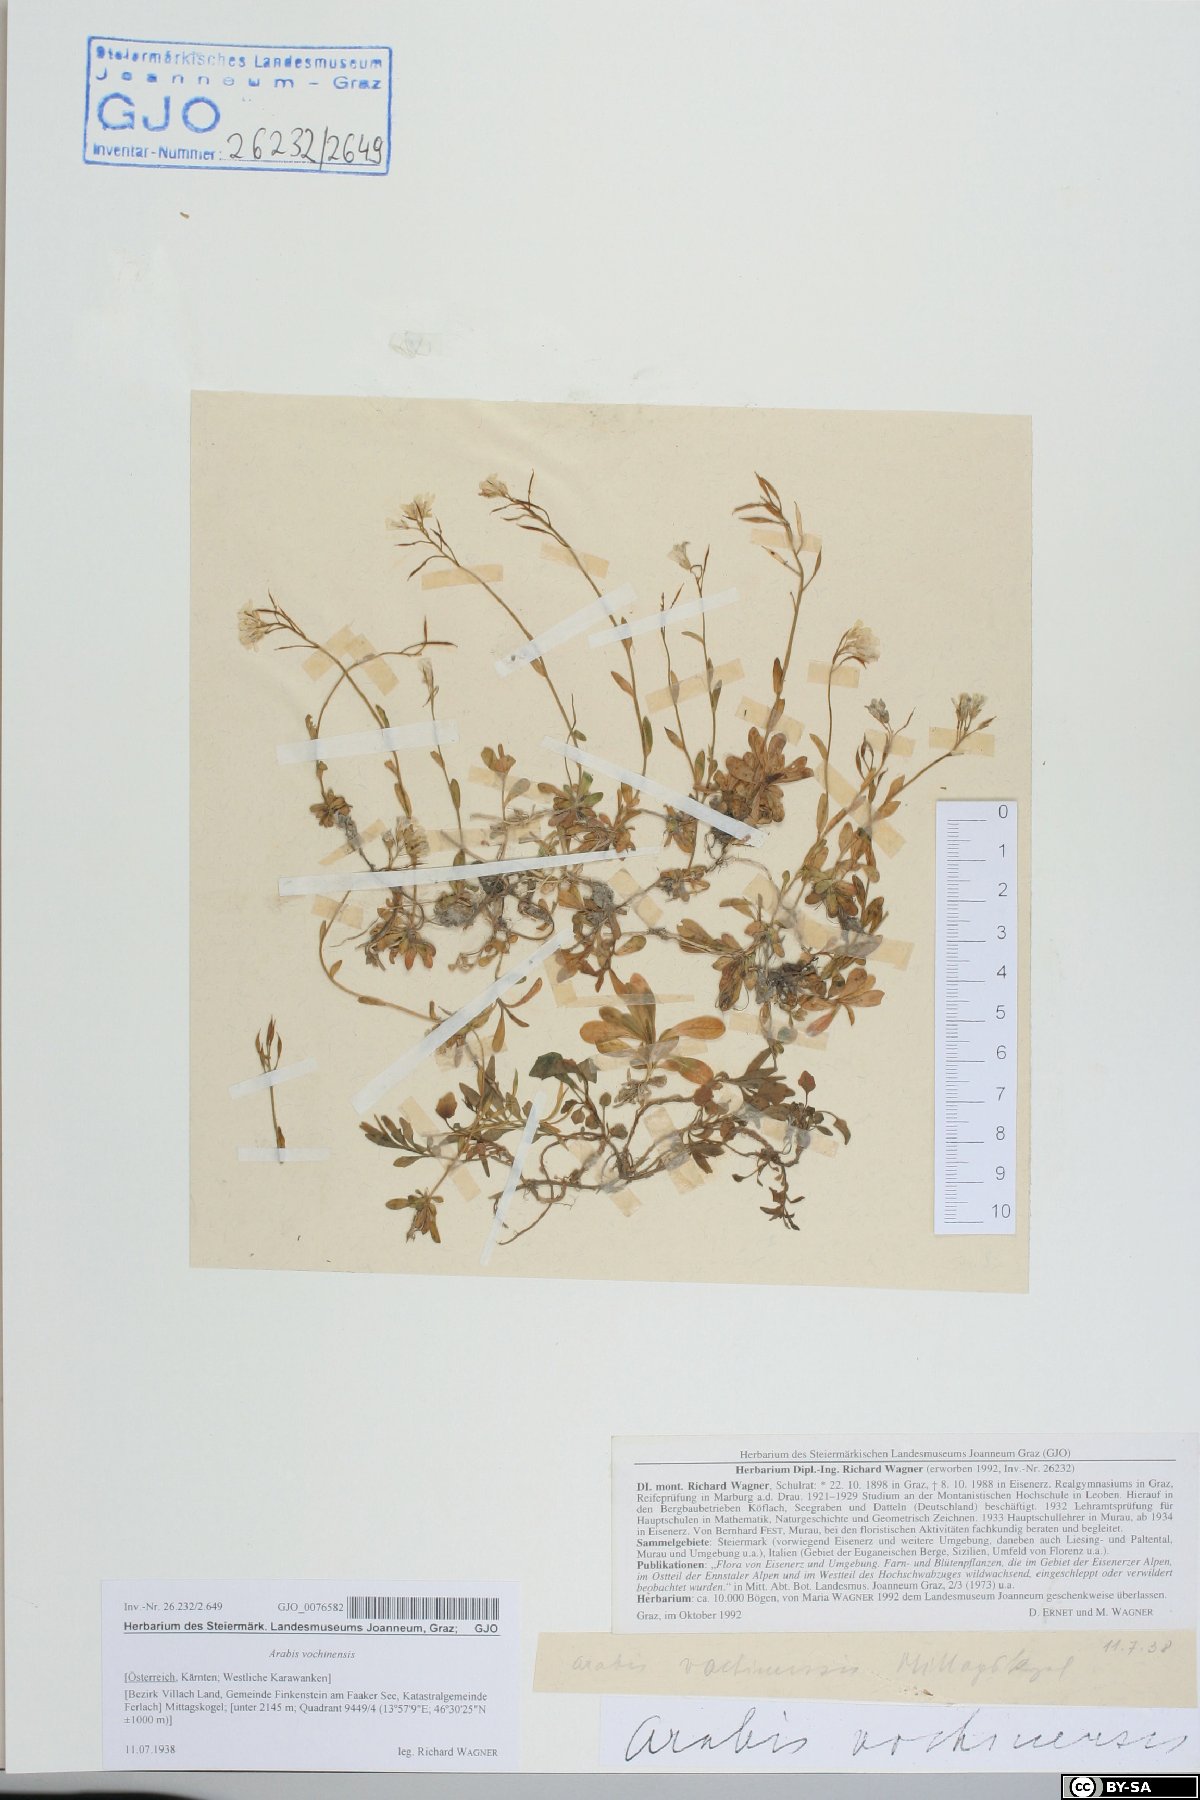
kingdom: Plantae
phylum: Tracheophyta
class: Magnoliopsida
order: Brassicales
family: Brassicaceae
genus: Arabis
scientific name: Arabis vochinensis
